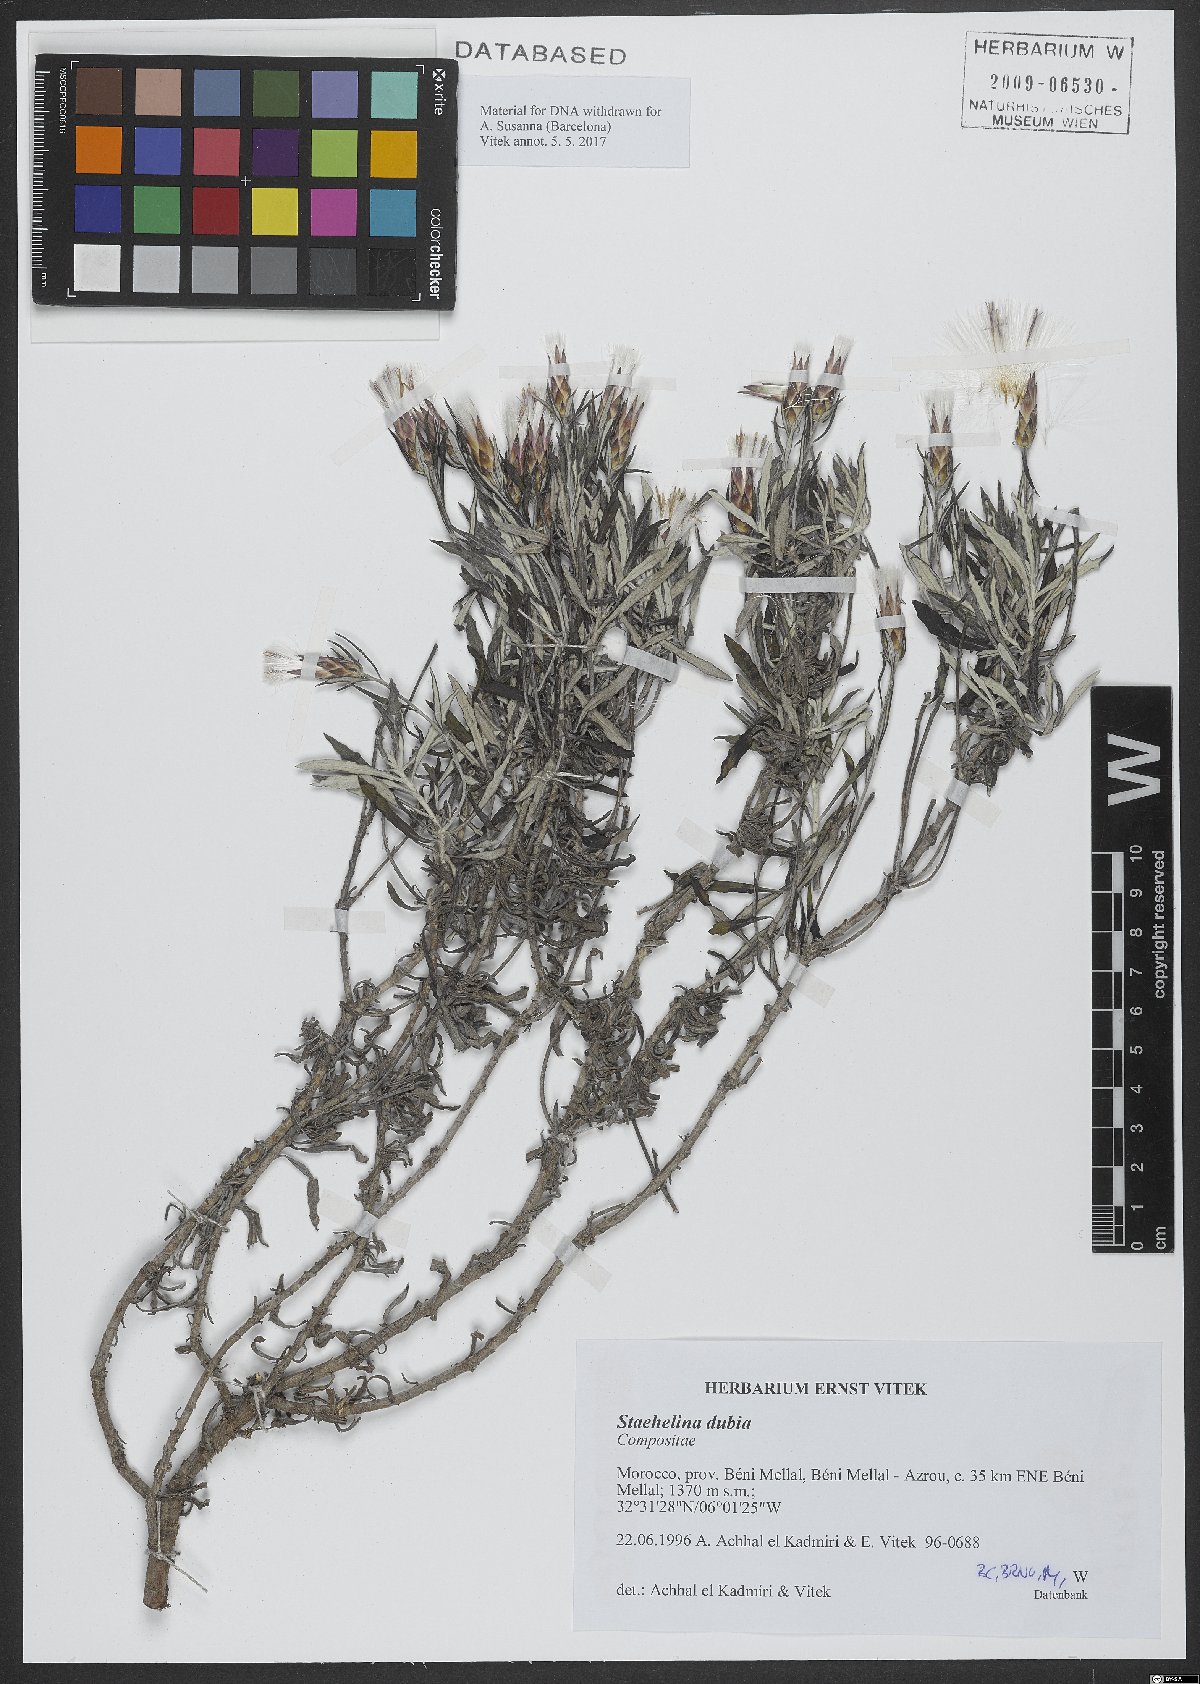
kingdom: Plantae
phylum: Tracheophyta
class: Magnoliopsida
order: Asterales
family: Asteraceae
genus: Staehelina
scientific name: Staehelina dubia
